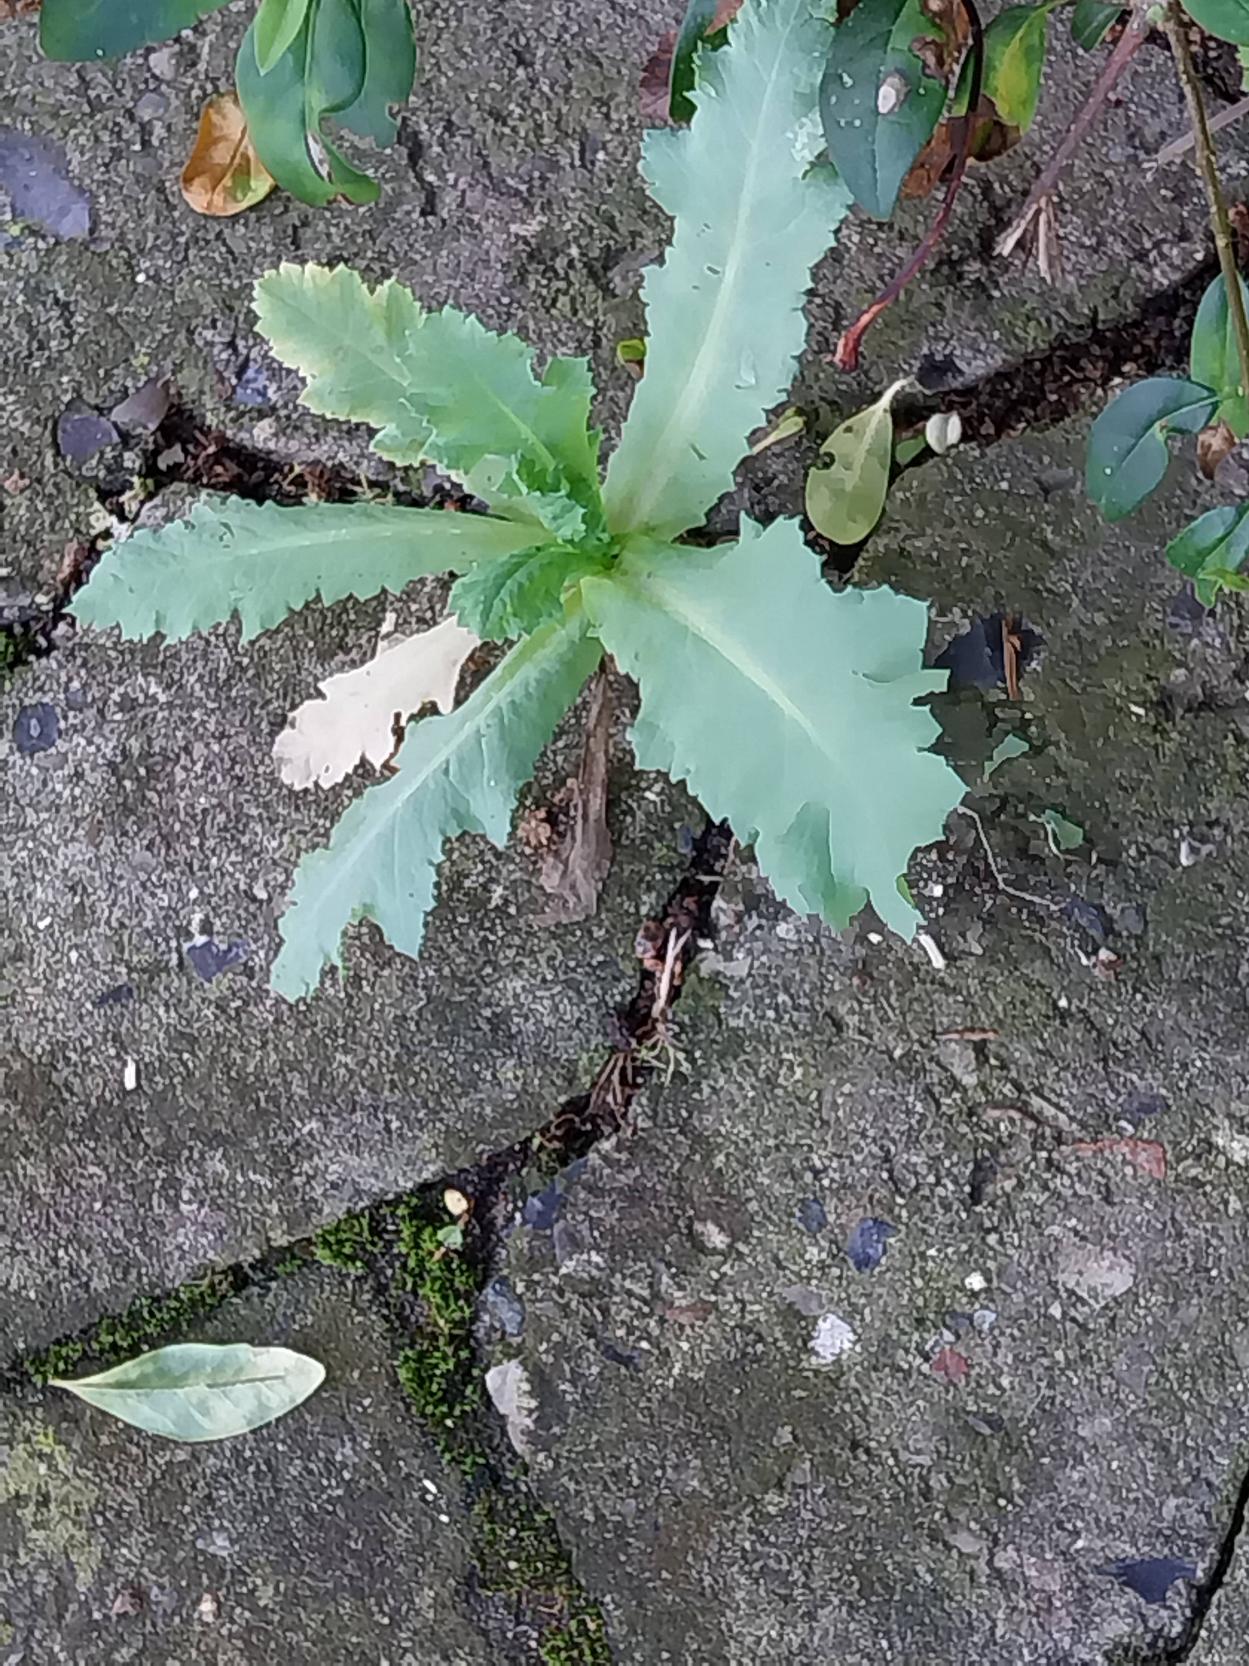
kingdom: Plantae
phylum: Tracheophyta
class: Magnoliopsida
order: Ranunculales
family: Papaveraceae
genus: Papaver
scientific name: Papaver somniferum
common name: Opium-valmue
